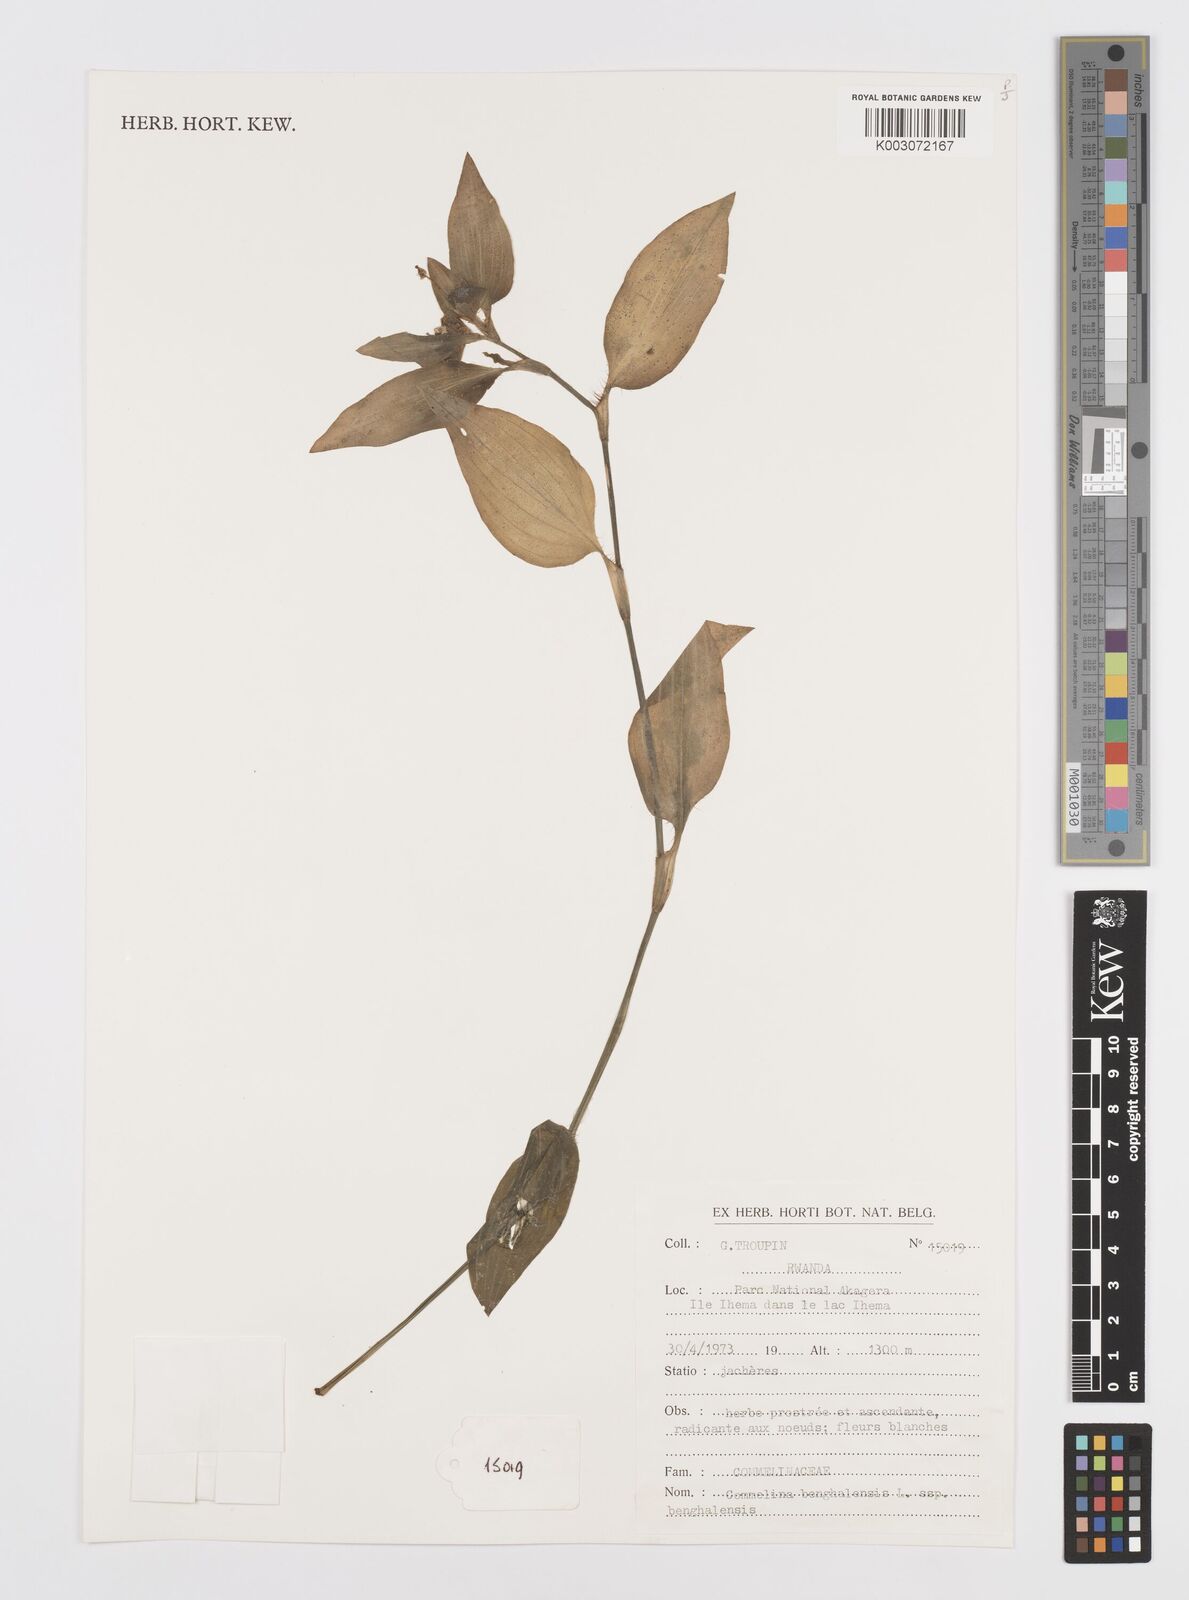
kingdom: Plantae
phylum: Tracheophyta
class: Liliopsida
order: Commelinales
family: Commelinaceae
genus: Commelina
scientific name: Commelina benghalensis
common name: Jio
